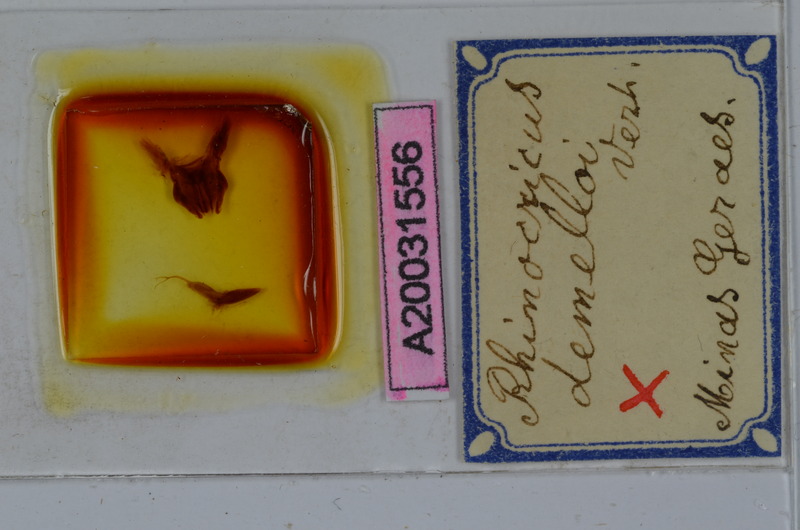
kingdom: Animalia
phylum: Arthropoda
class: Diplopoda
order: Spirobolida
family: Rhinocricidae
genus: Rhinocricus
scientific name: Rhinocricus demelloi
